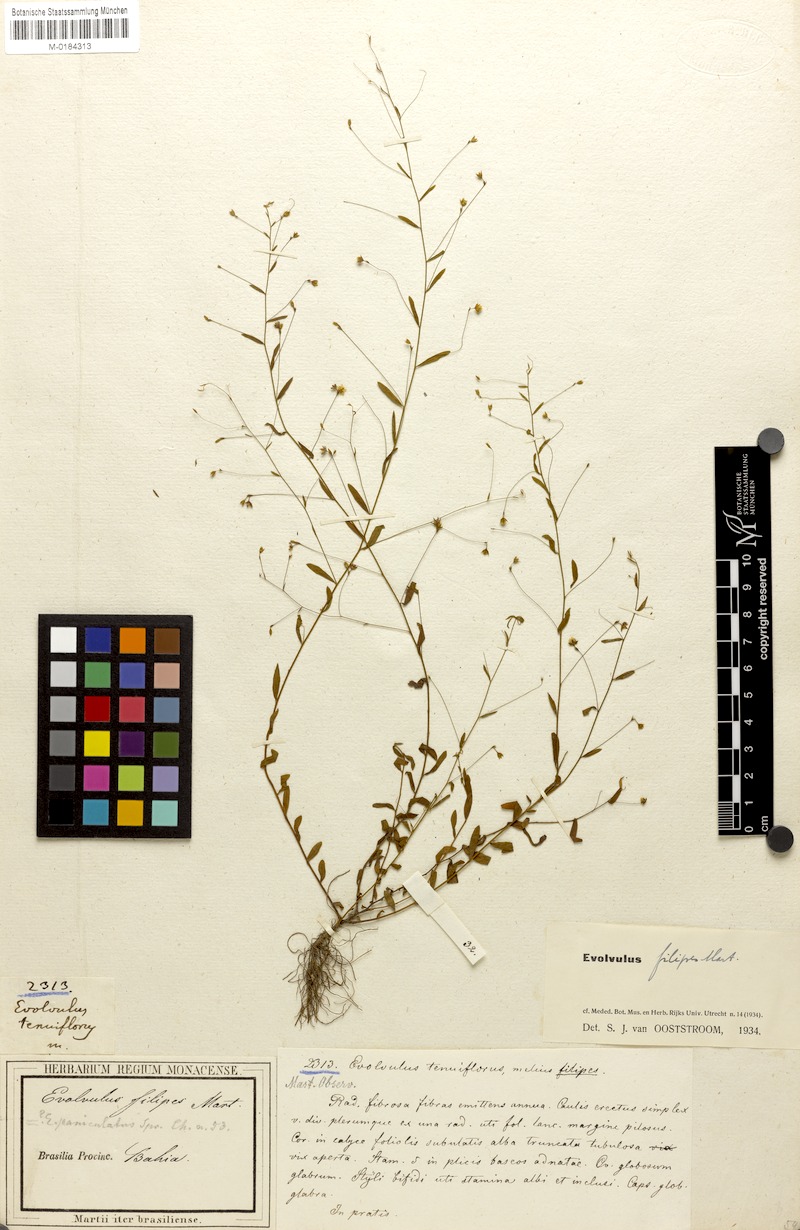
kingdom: Plantae
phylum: Tracheophyta
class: Magnoliopsida
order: Solanales
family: Convolvulaceae
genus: Evolvulus
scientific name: Evolvulus filipes
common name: Maryland dwarf morning-glory
